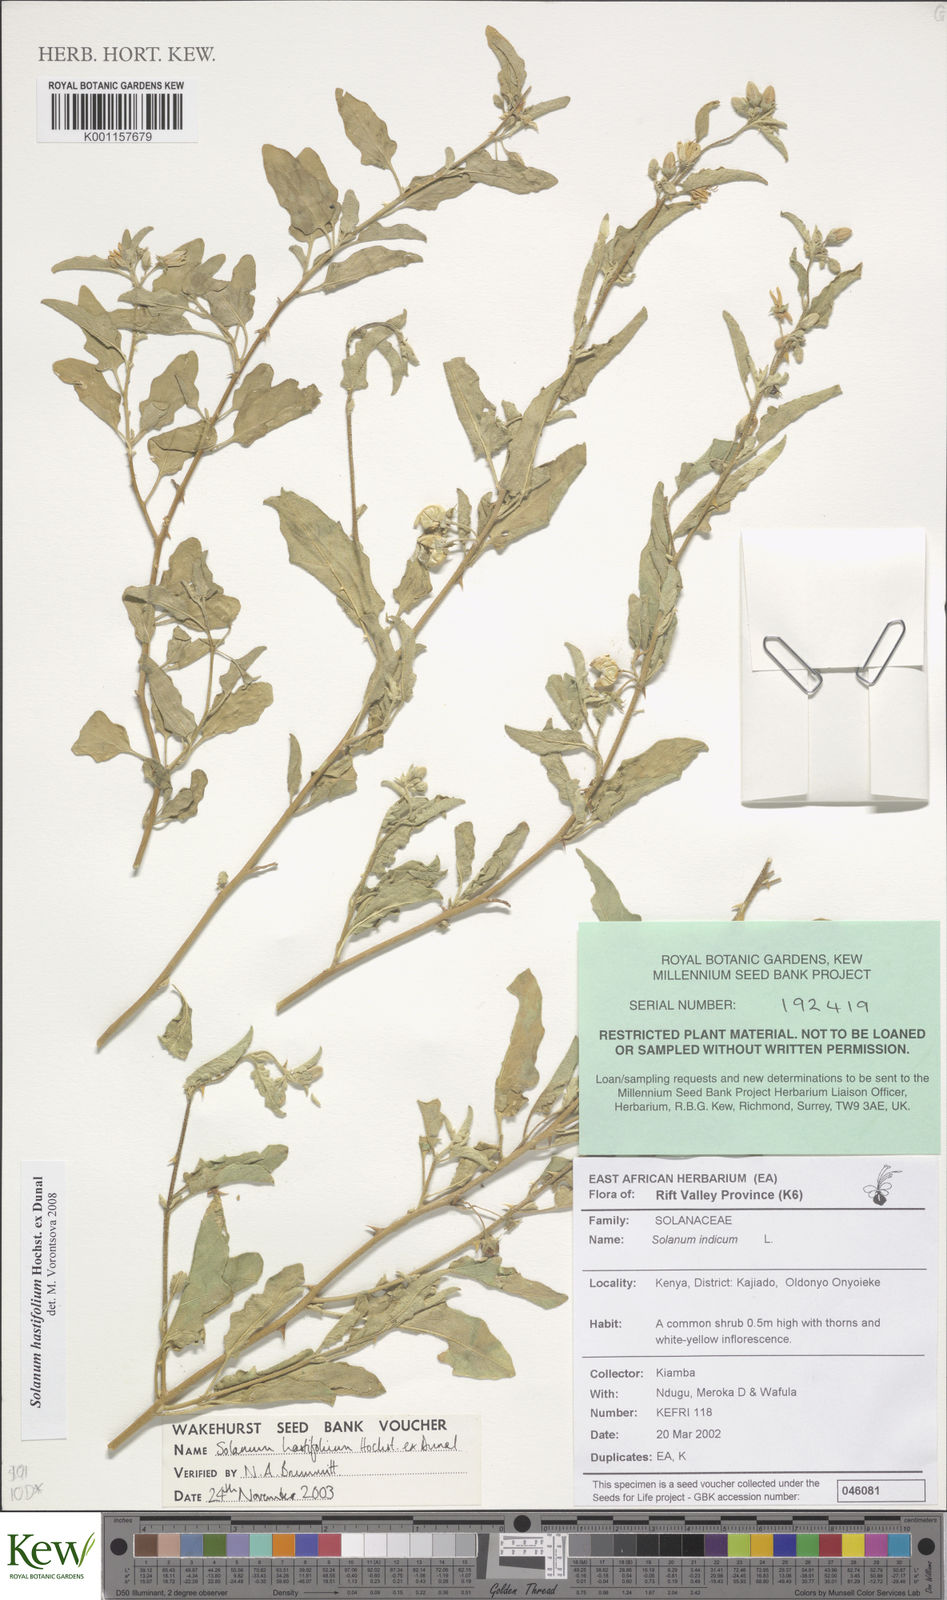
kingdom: Plantae
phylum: Tracheophyta
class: Magnoliopsida
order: Solanales
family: Solanaceae
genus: Solanum
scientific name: Solanum hastifolium
